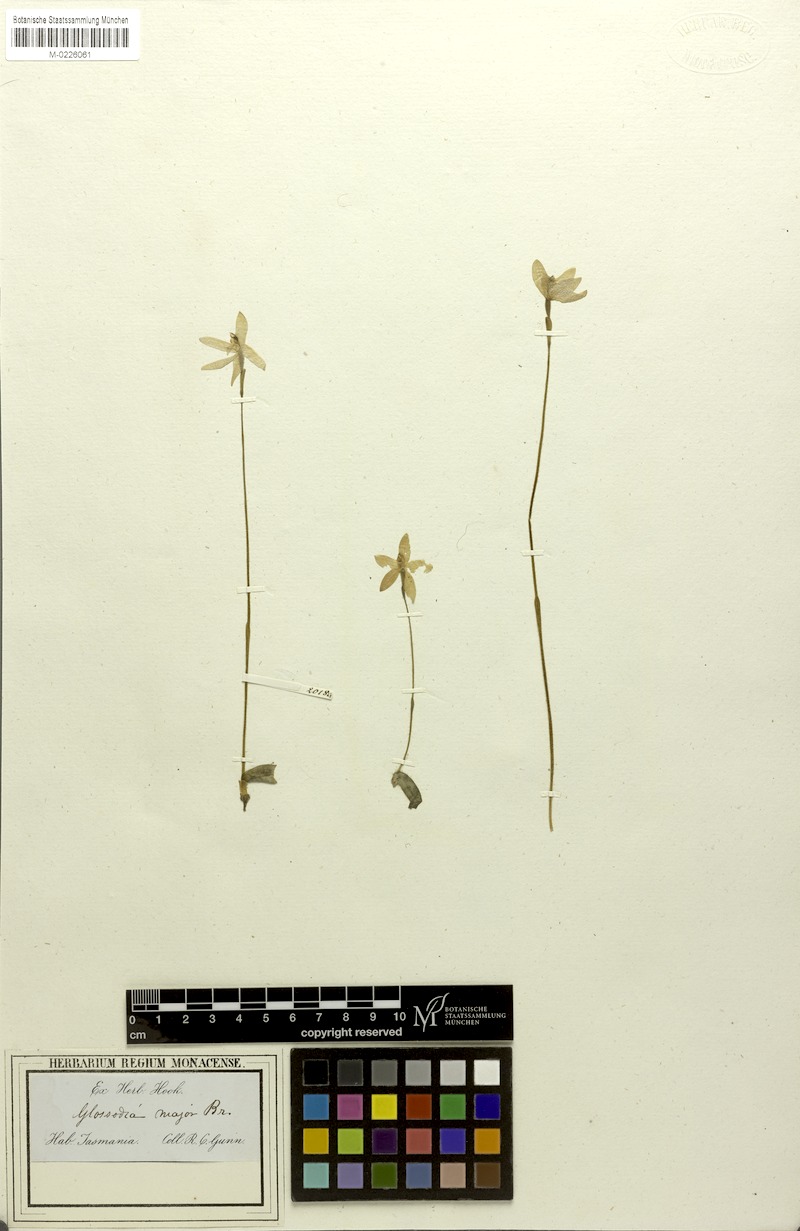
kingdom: Plantae
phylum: Tracheophyta
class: Liliopsida
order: Asparagales
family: Orchidaceae
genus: Caladenia
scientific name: Caladenia major
